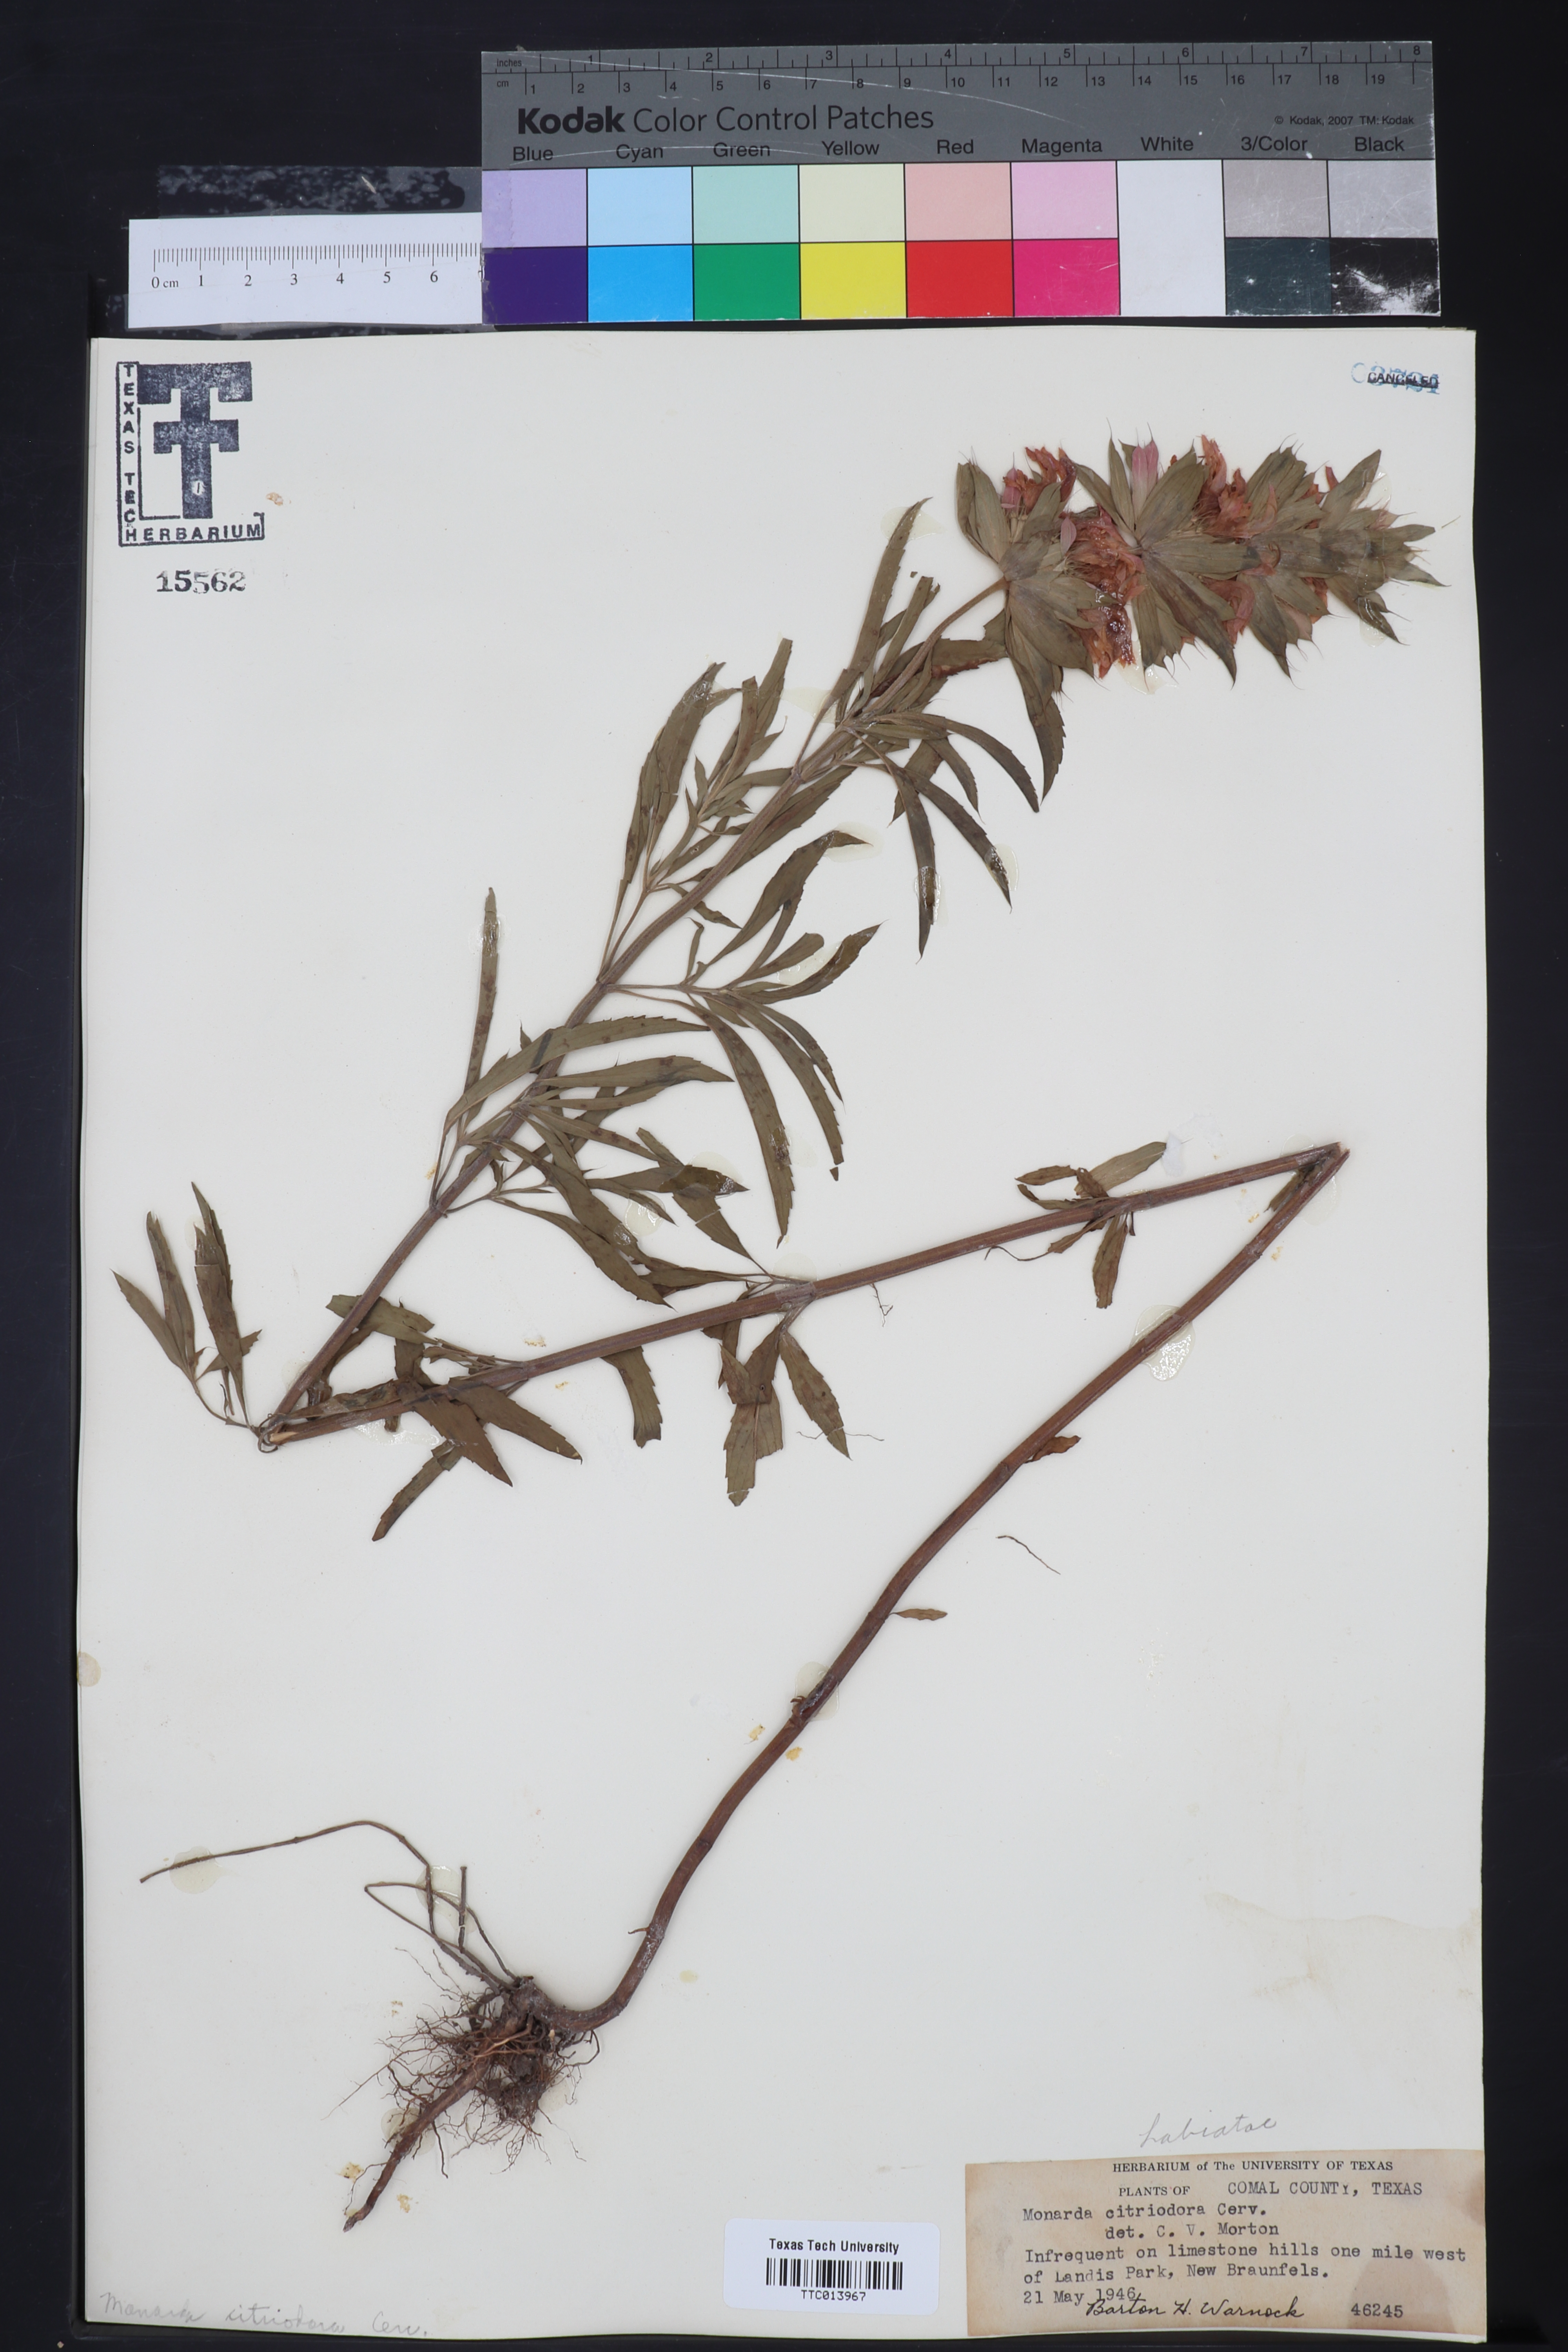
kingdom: Plantae
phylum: Tracheophyta
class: Magnoliopsida
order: Lamiales
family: Lamiaceae
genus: Monarda
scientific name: Monarda citriodora
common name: Lemon beebalm
